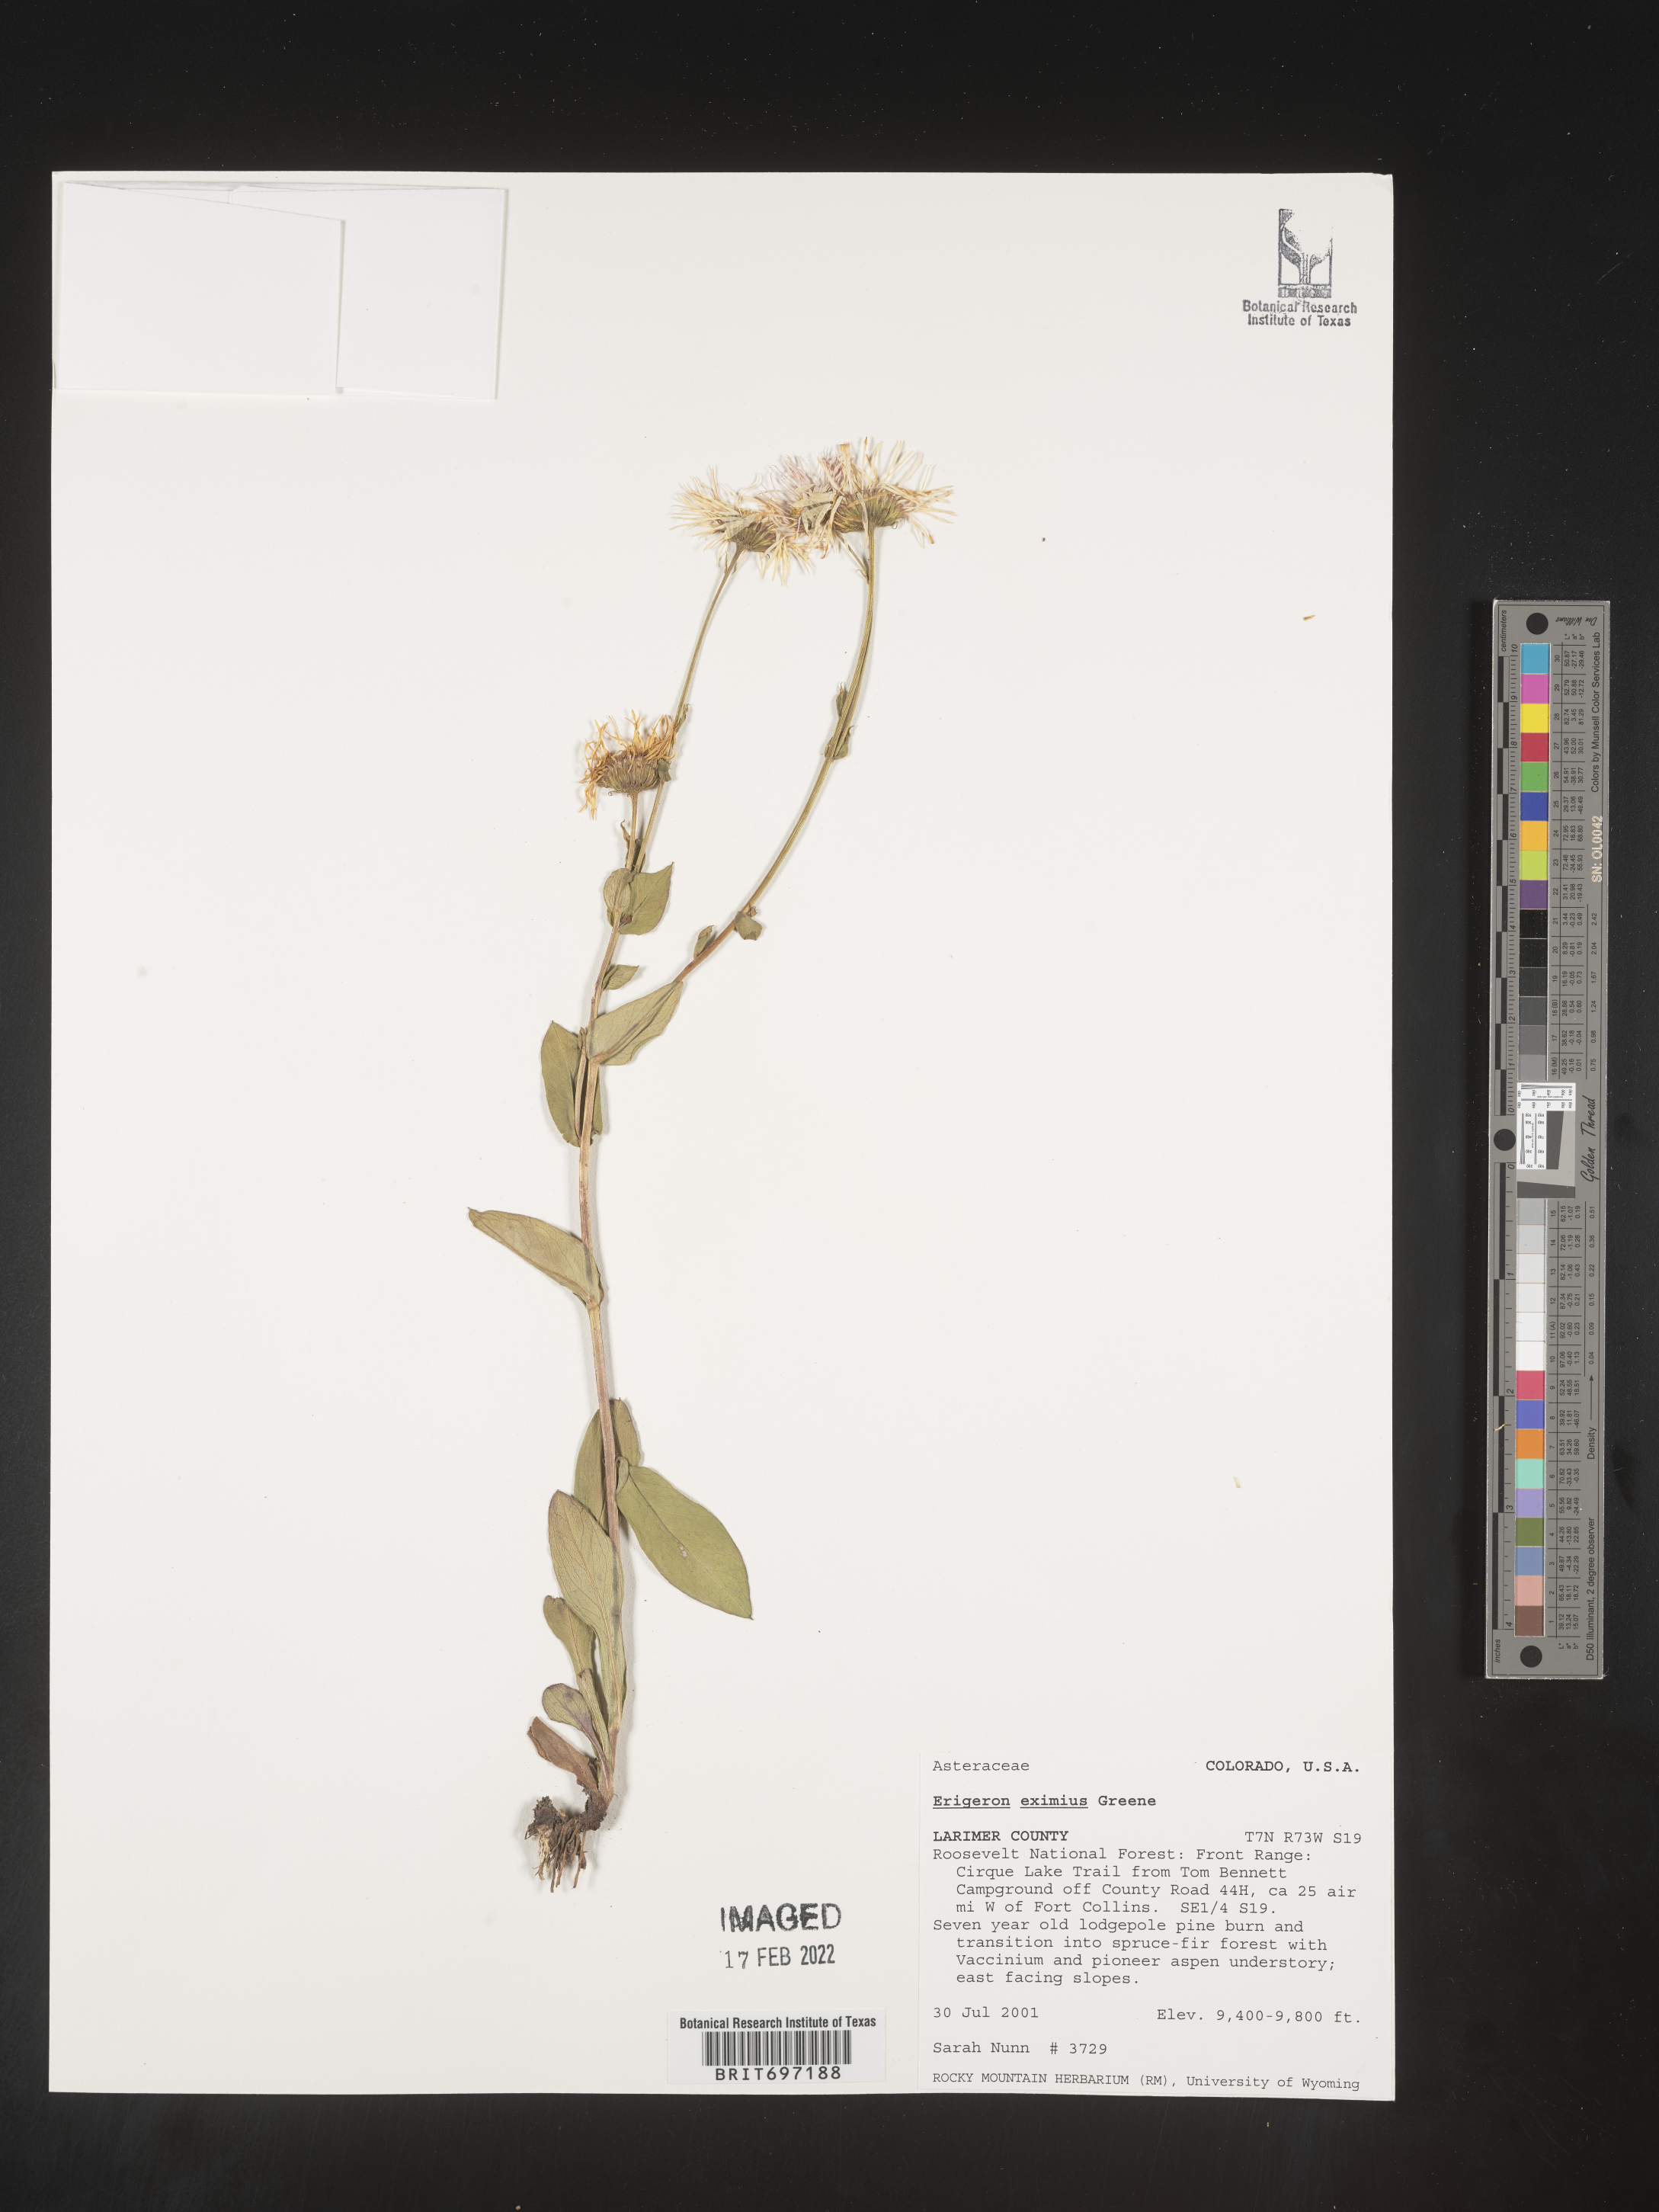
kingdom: Plantae
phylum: Tracheophyta
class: Magnoliopsida
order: Asterales
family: Asteraceae
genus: Erigeron
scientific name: Erigeron eximius
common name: Spruce-fir fleabane
